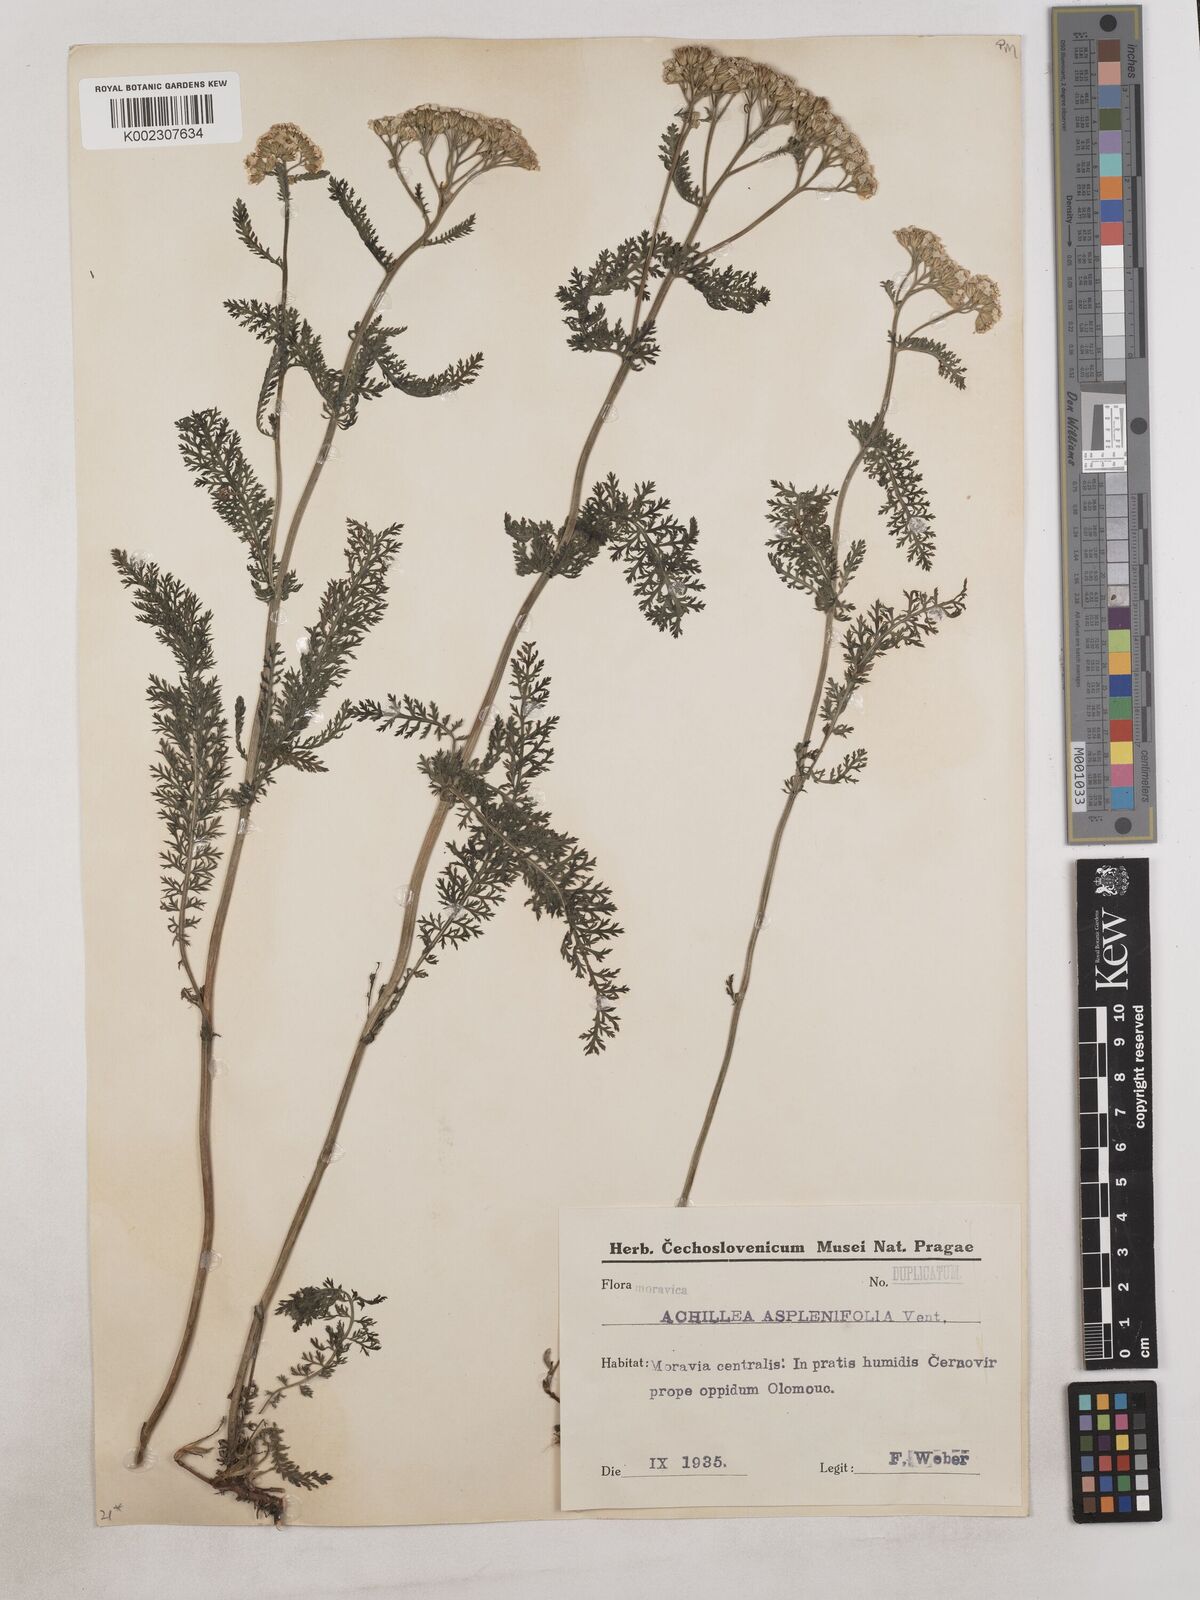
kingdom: Plantae
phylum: Tracheophyta
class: Magnoliopsida
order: Asterales
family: Asteraceae
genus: Achillea
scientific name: Achillea
